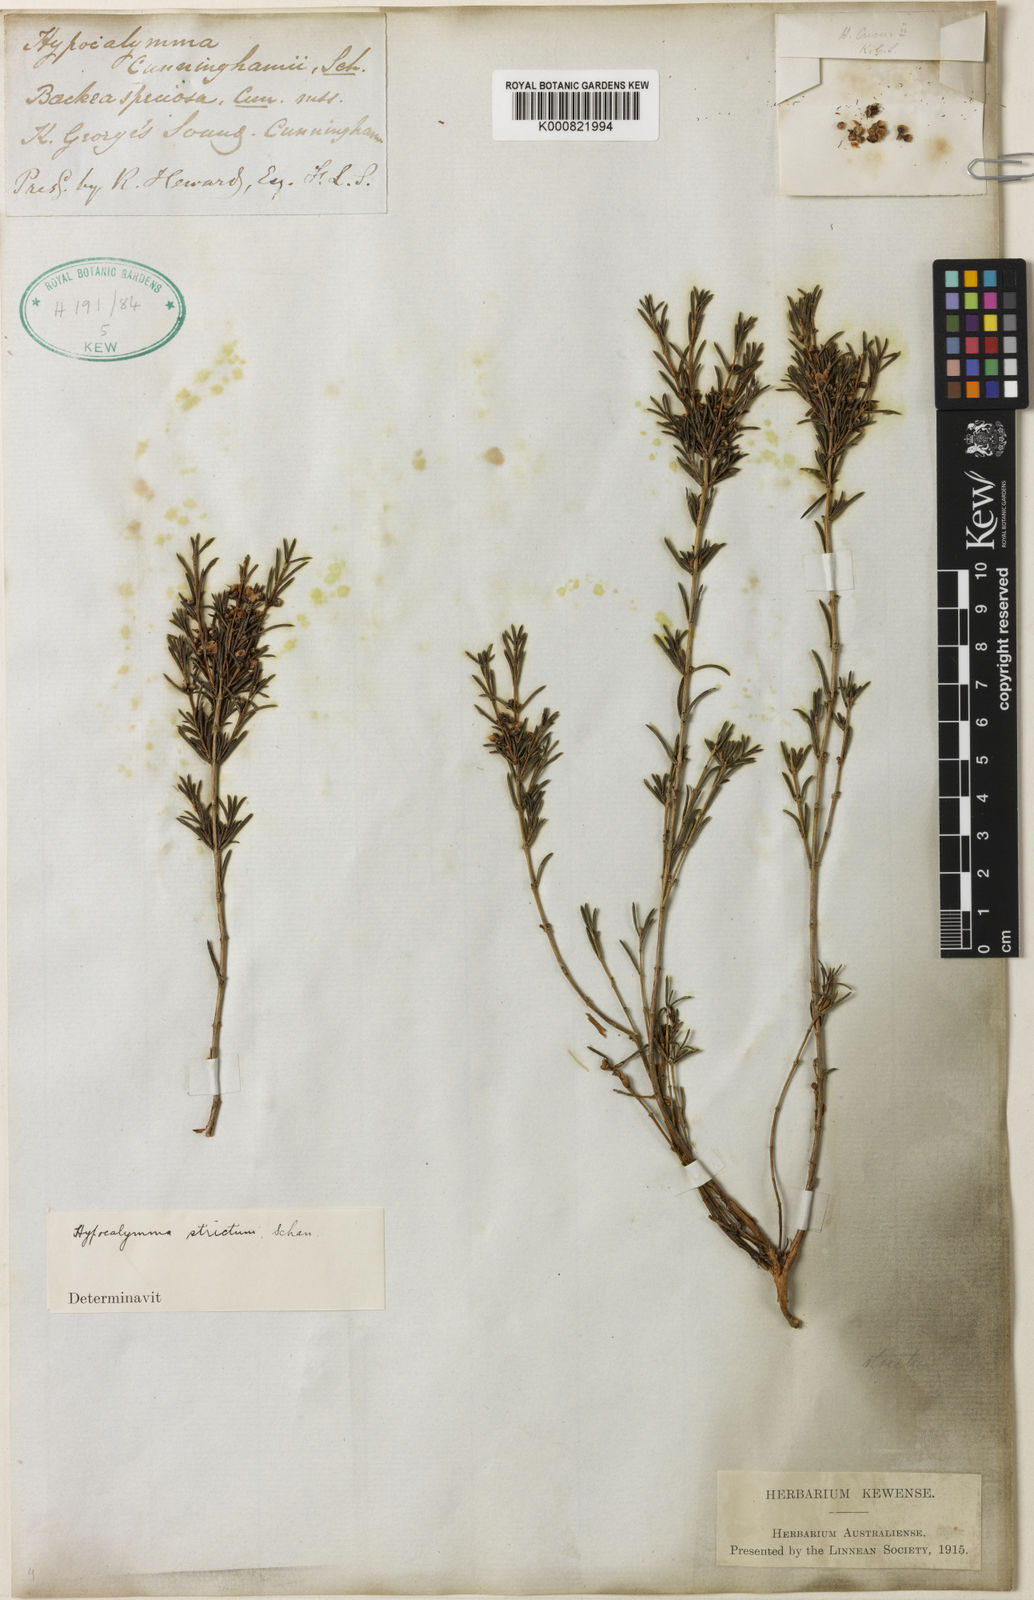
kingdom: Plantae
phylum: Tracheophyta
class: Magnoliopsida
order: Myrtales
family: Myrtaceae
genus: Hypocalymma
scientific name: Hypocalymma strictum
